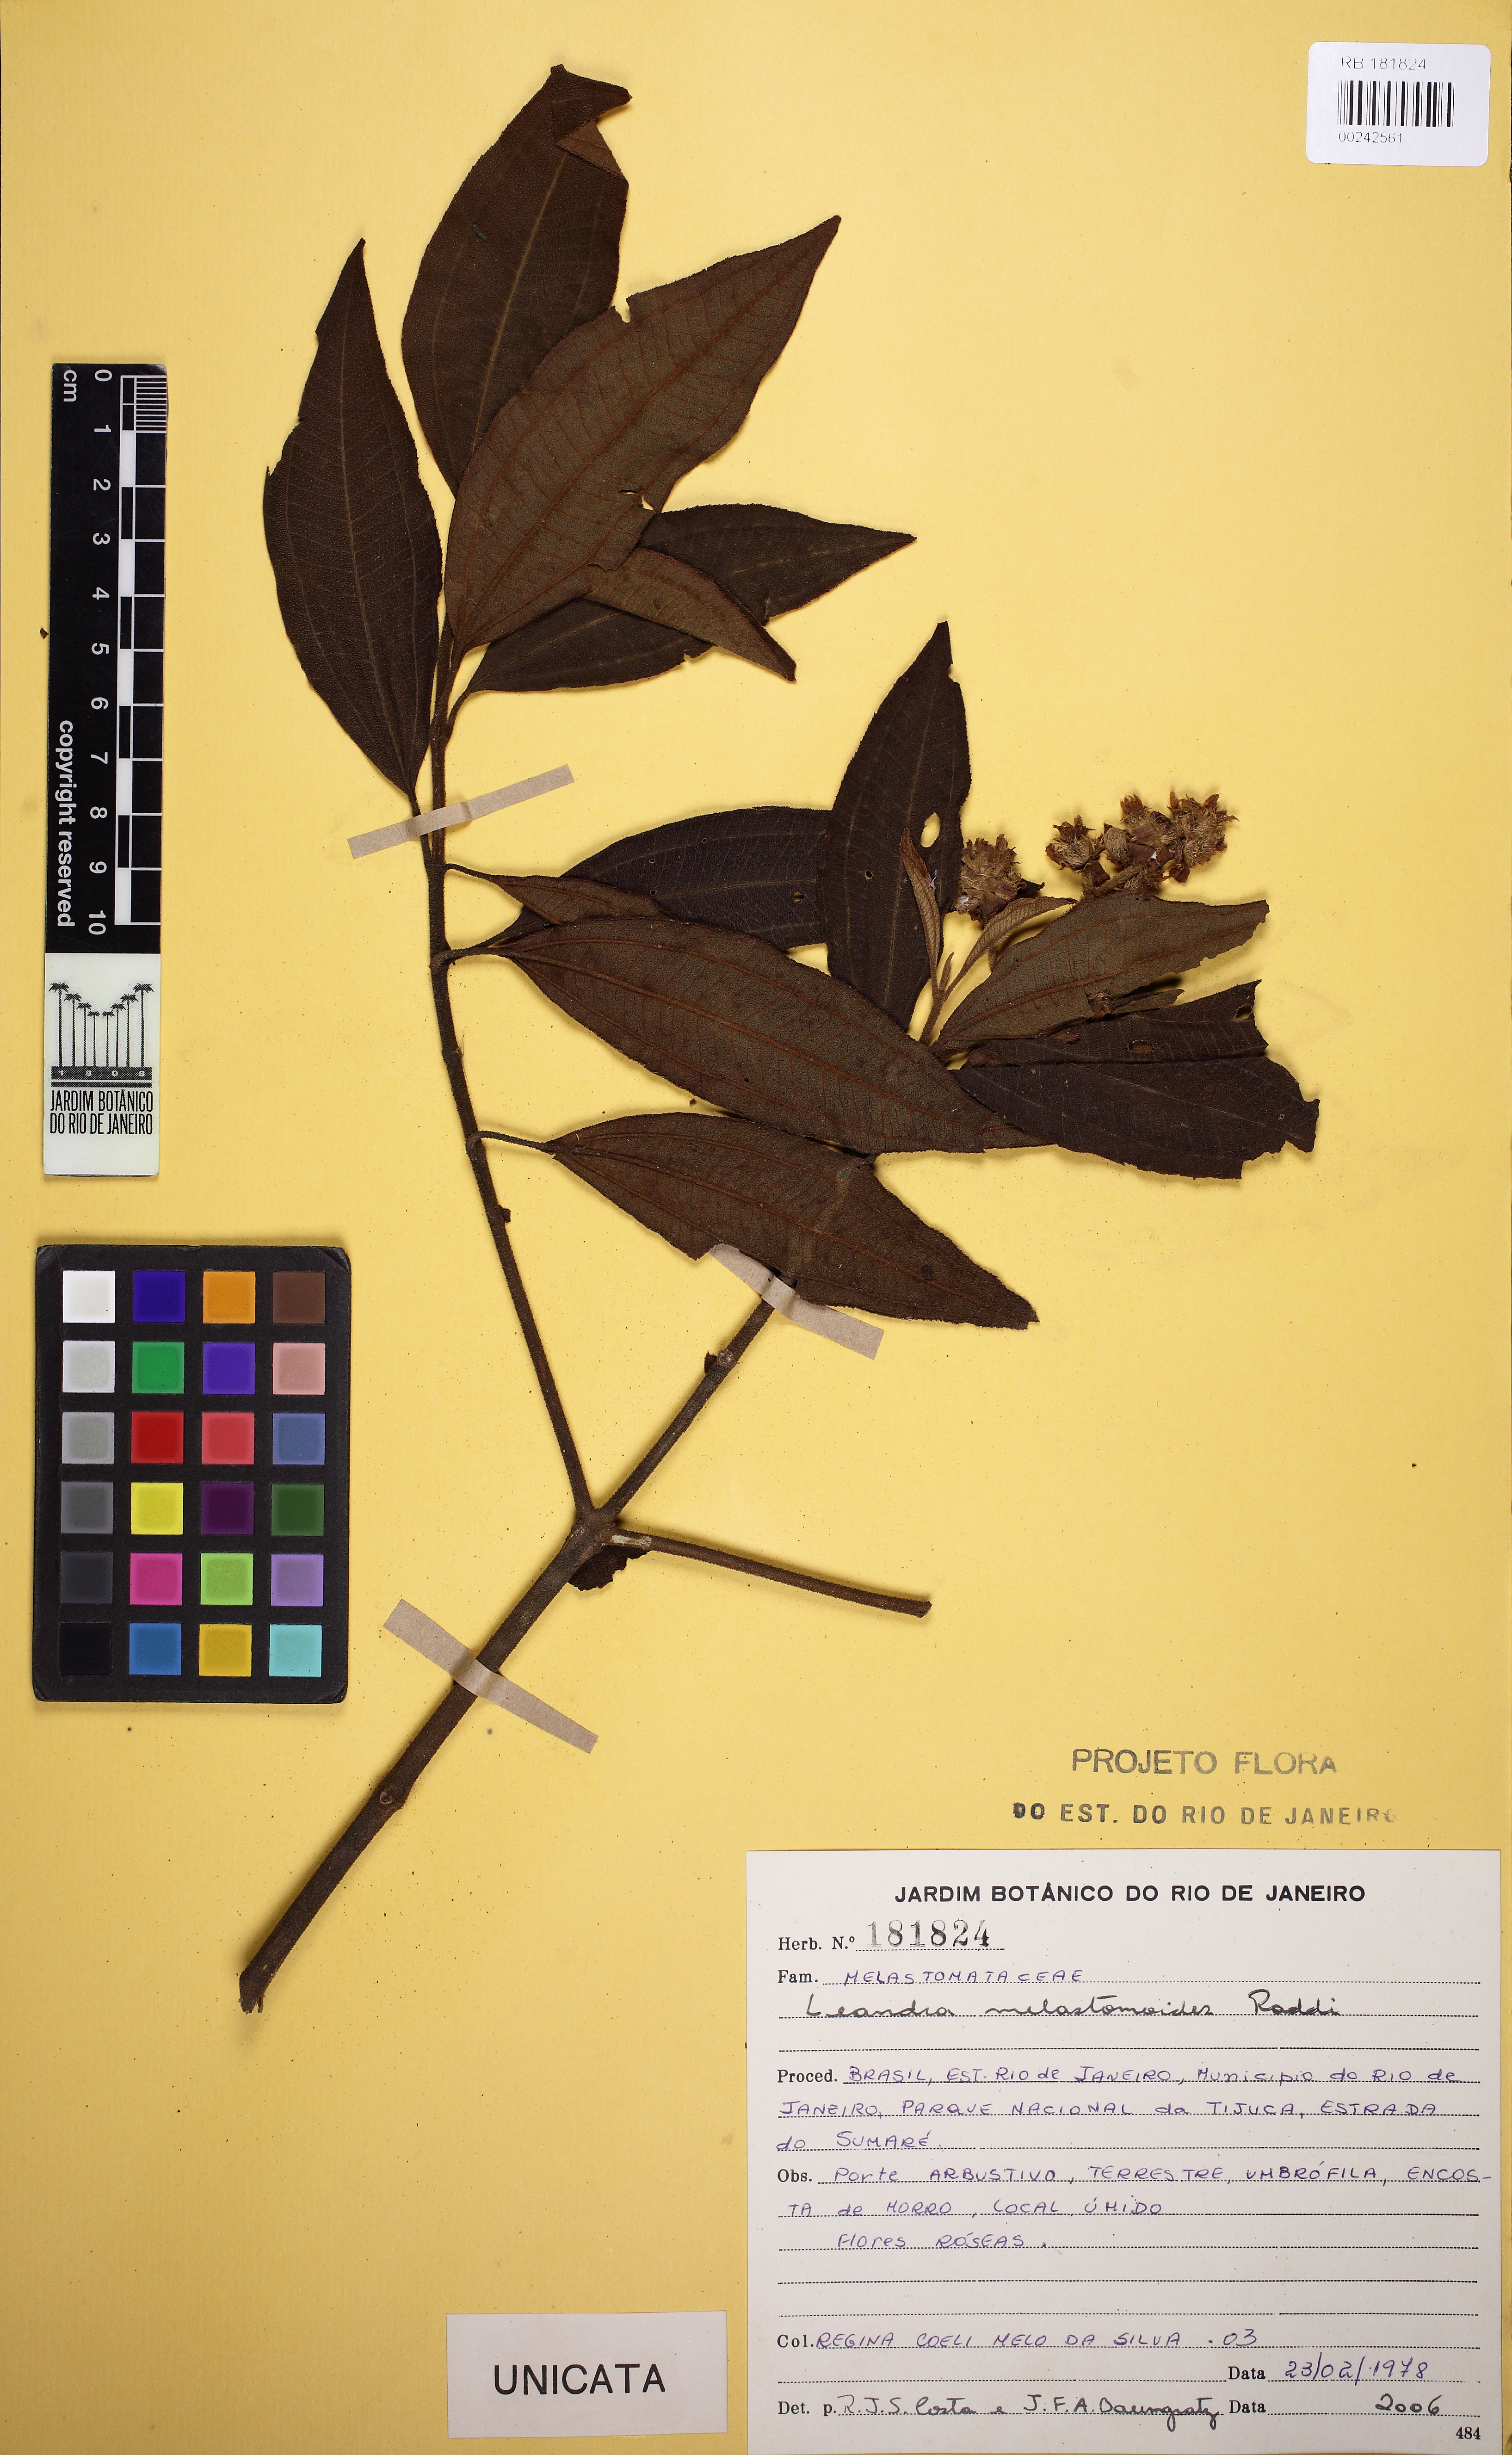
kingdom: Plantae
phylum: Tracheophyta
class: Magnoliopsida
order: Myrtales
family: Melastomataceae
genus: Miconia
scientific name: Miconia melastomoides
